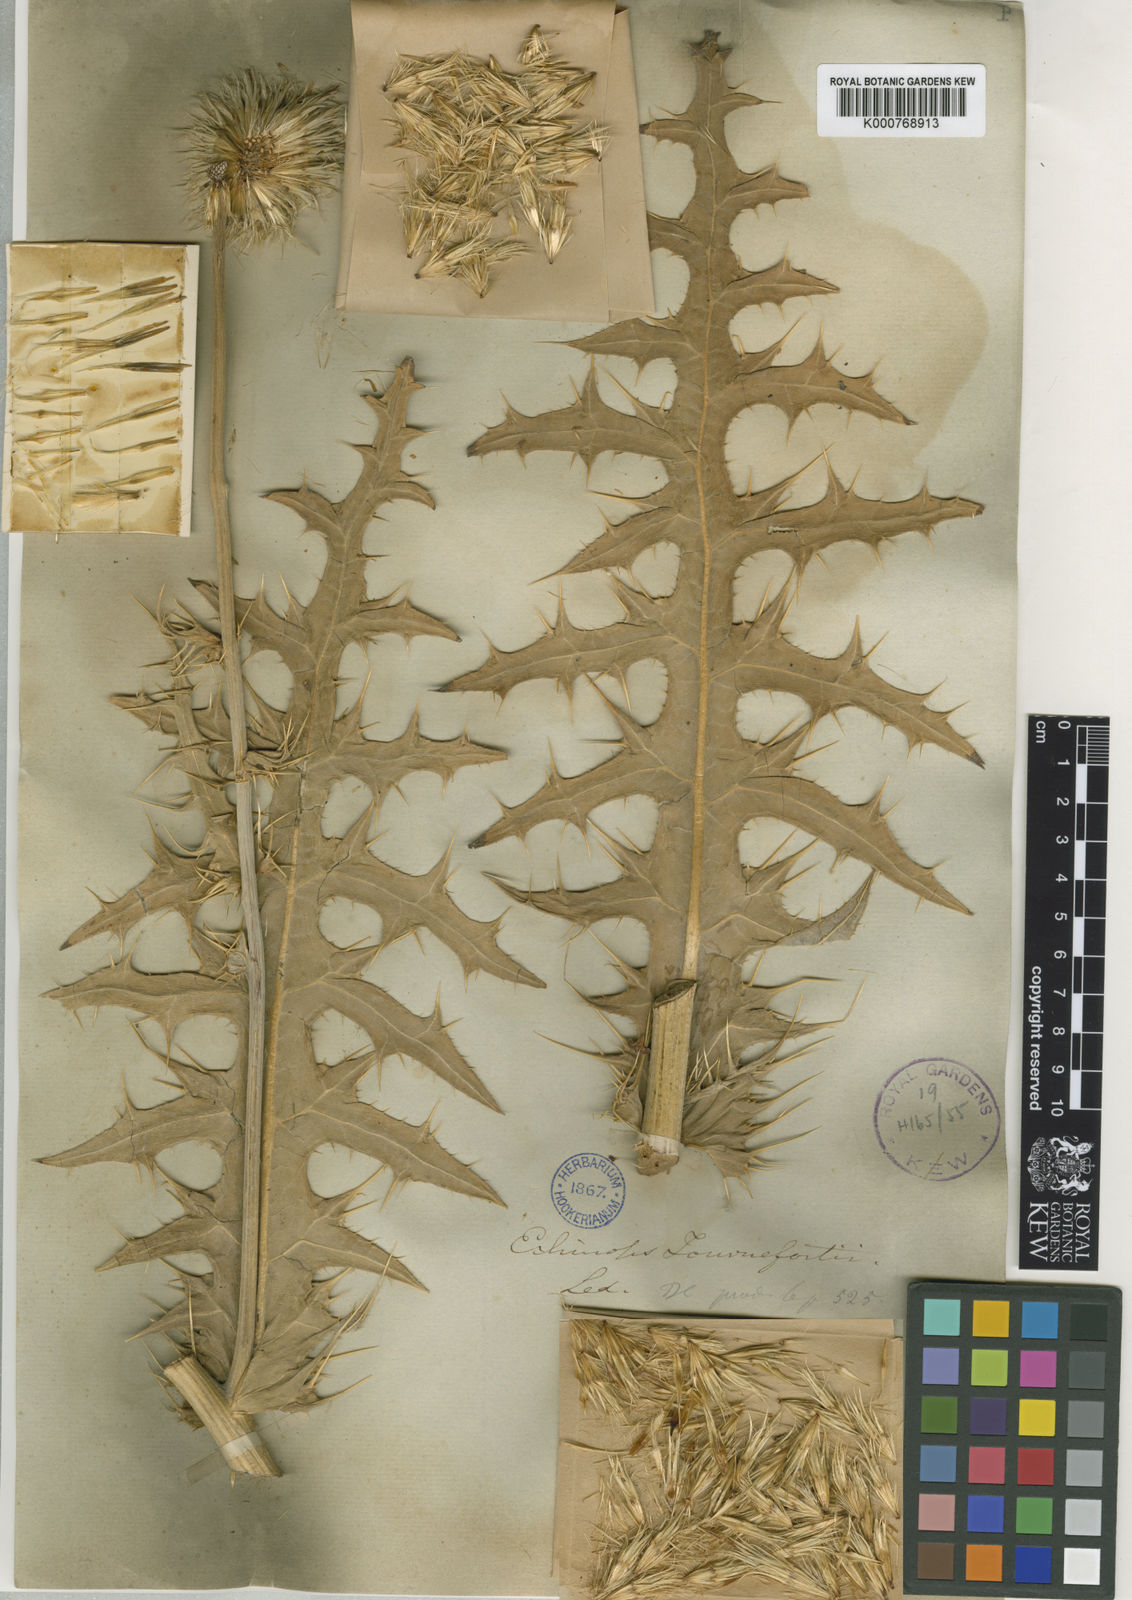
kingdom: Plantae
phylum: Tracheophyta
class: Magnoliopsida
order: Asterales
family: Asteraceae
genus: Echinops
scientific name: Echinops tournefortii
